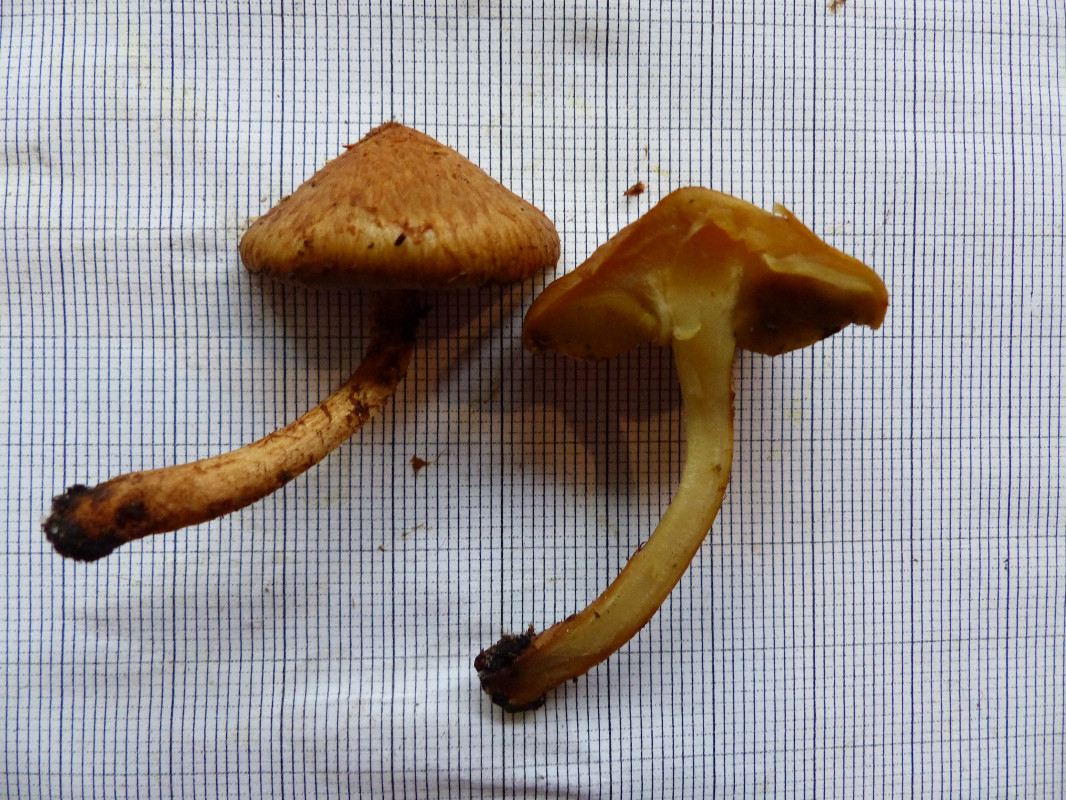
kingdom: Fungi
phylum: Basidiomycota
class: Agaricomycetes
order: Agaricales
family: Strophariaceae
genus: Pholiota
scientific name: Pholiota
